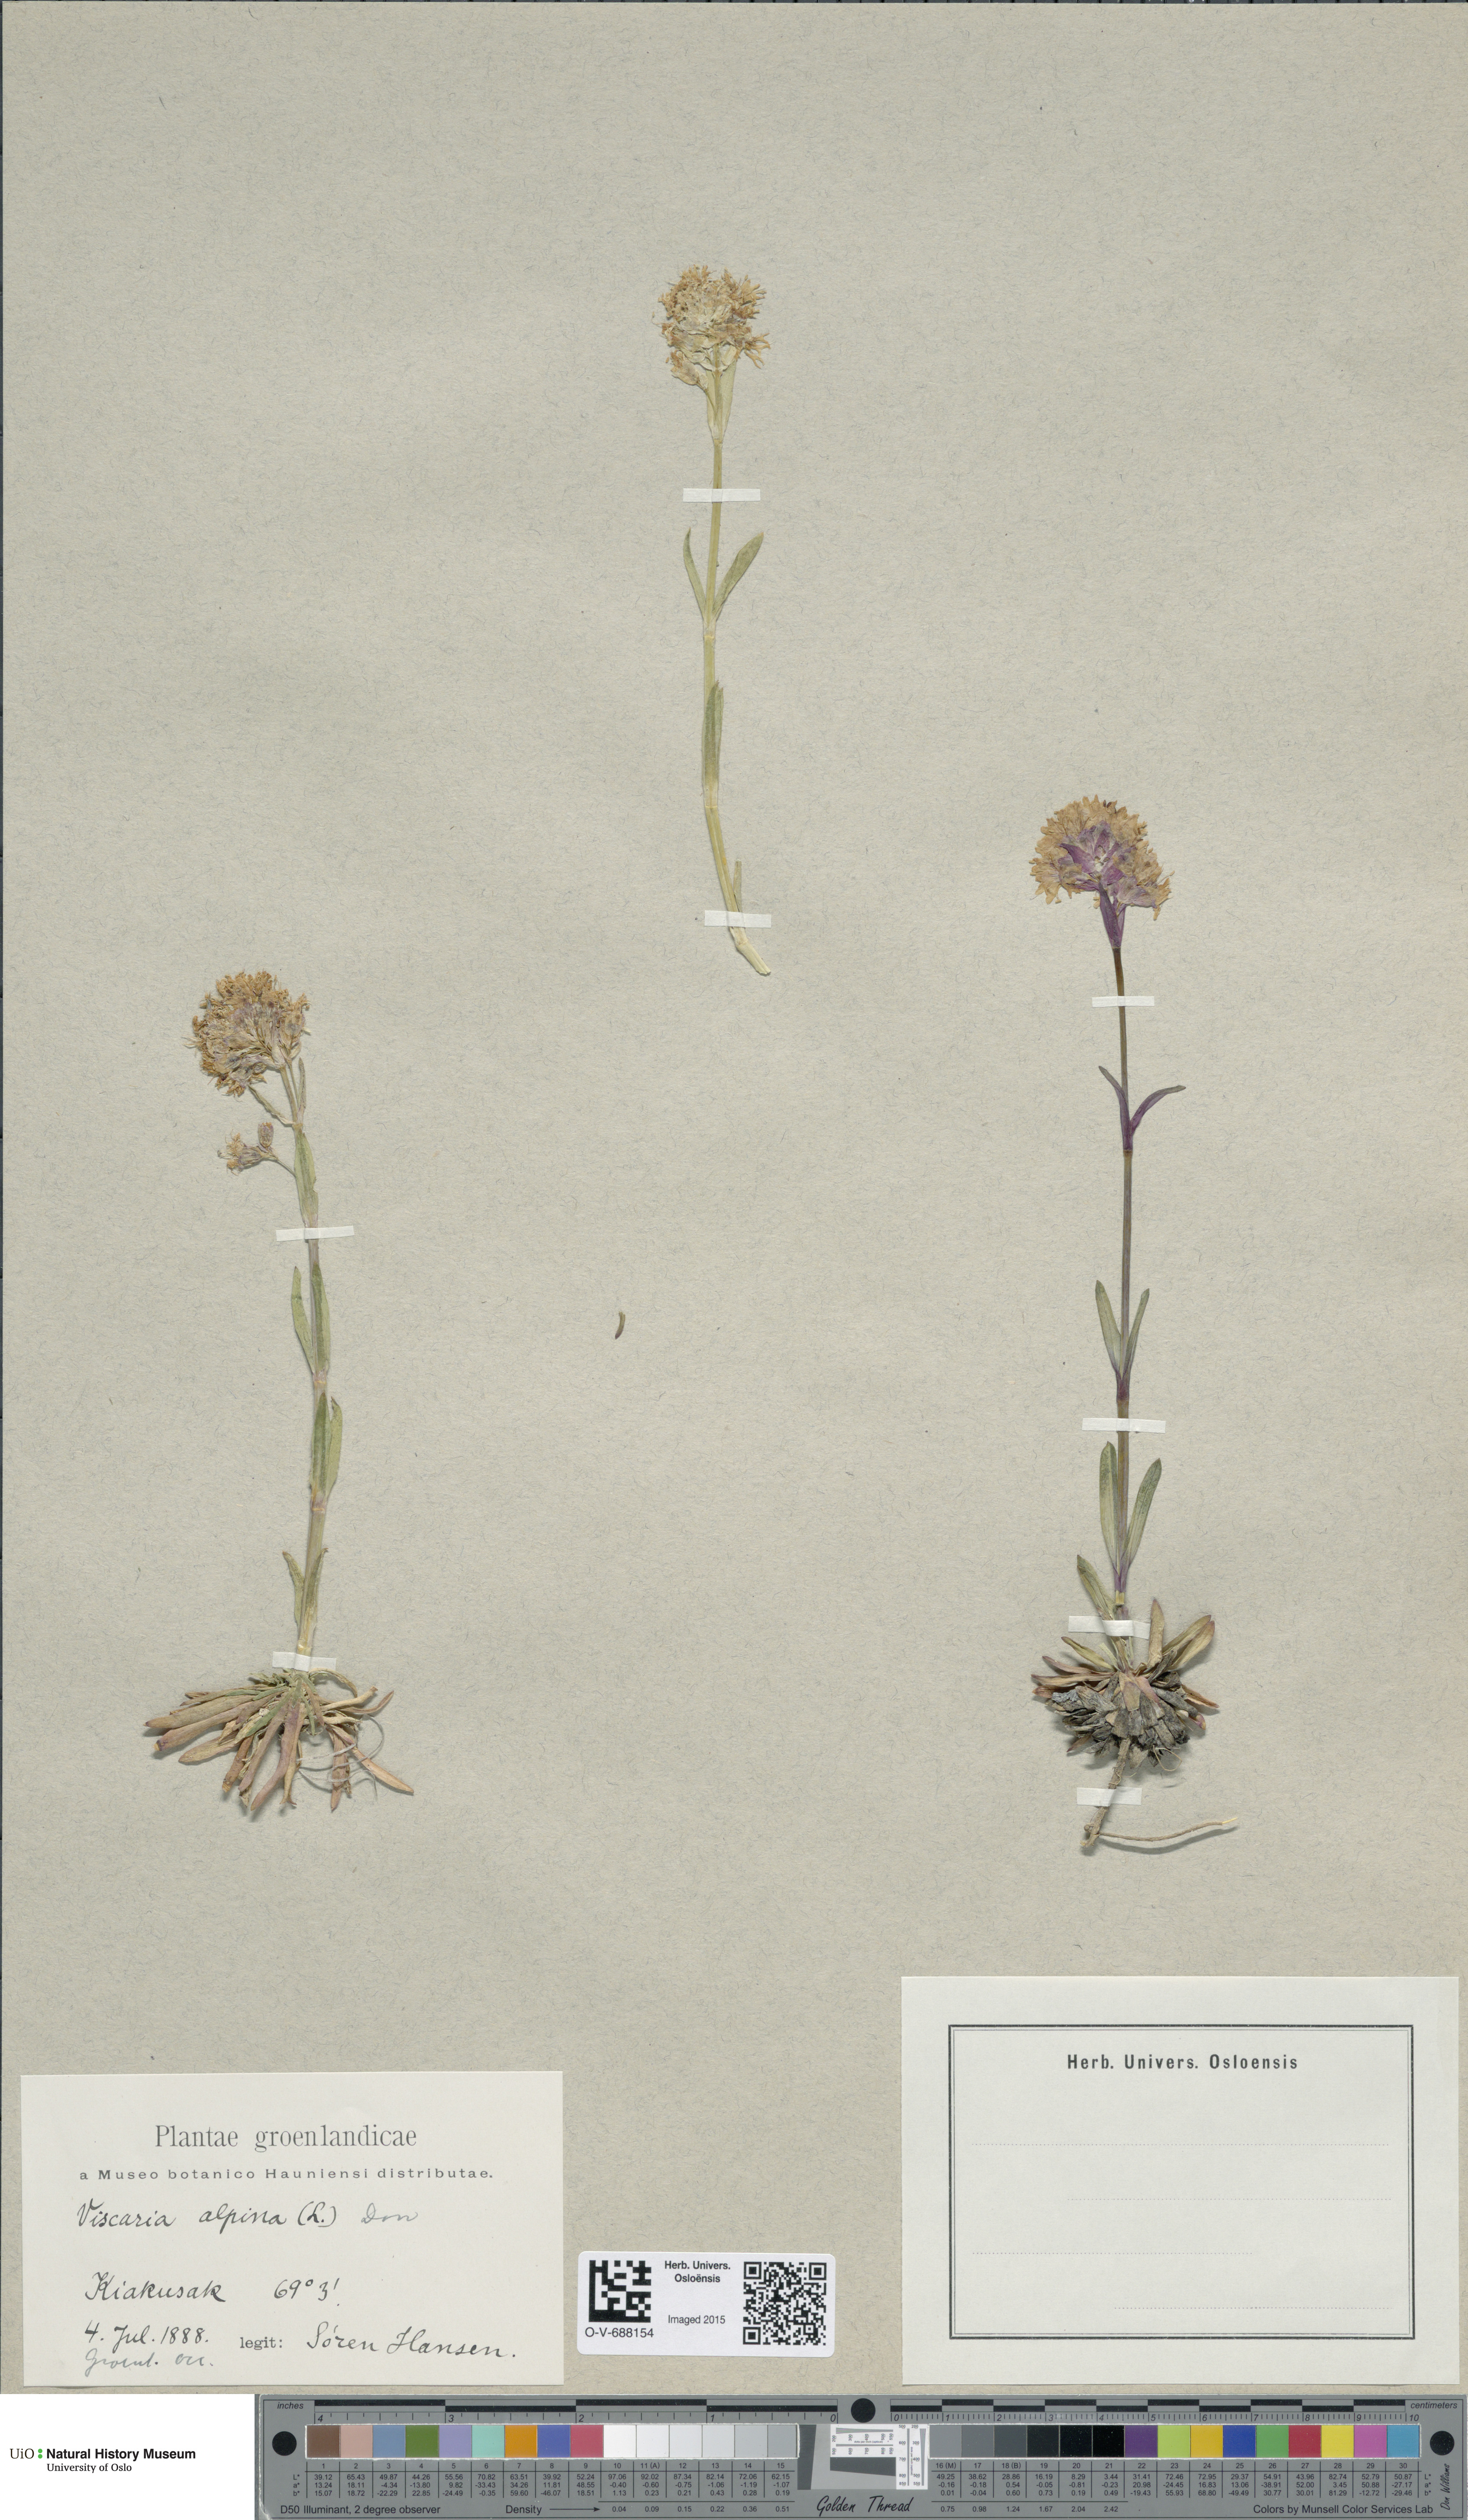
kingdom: Plantae
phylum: Tracheophyta
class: Magnoliopsida
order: Caryophyllales
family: Caryophyllaceae
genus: Viscaria
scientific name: Viscaria alpina
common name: Alpine campion
